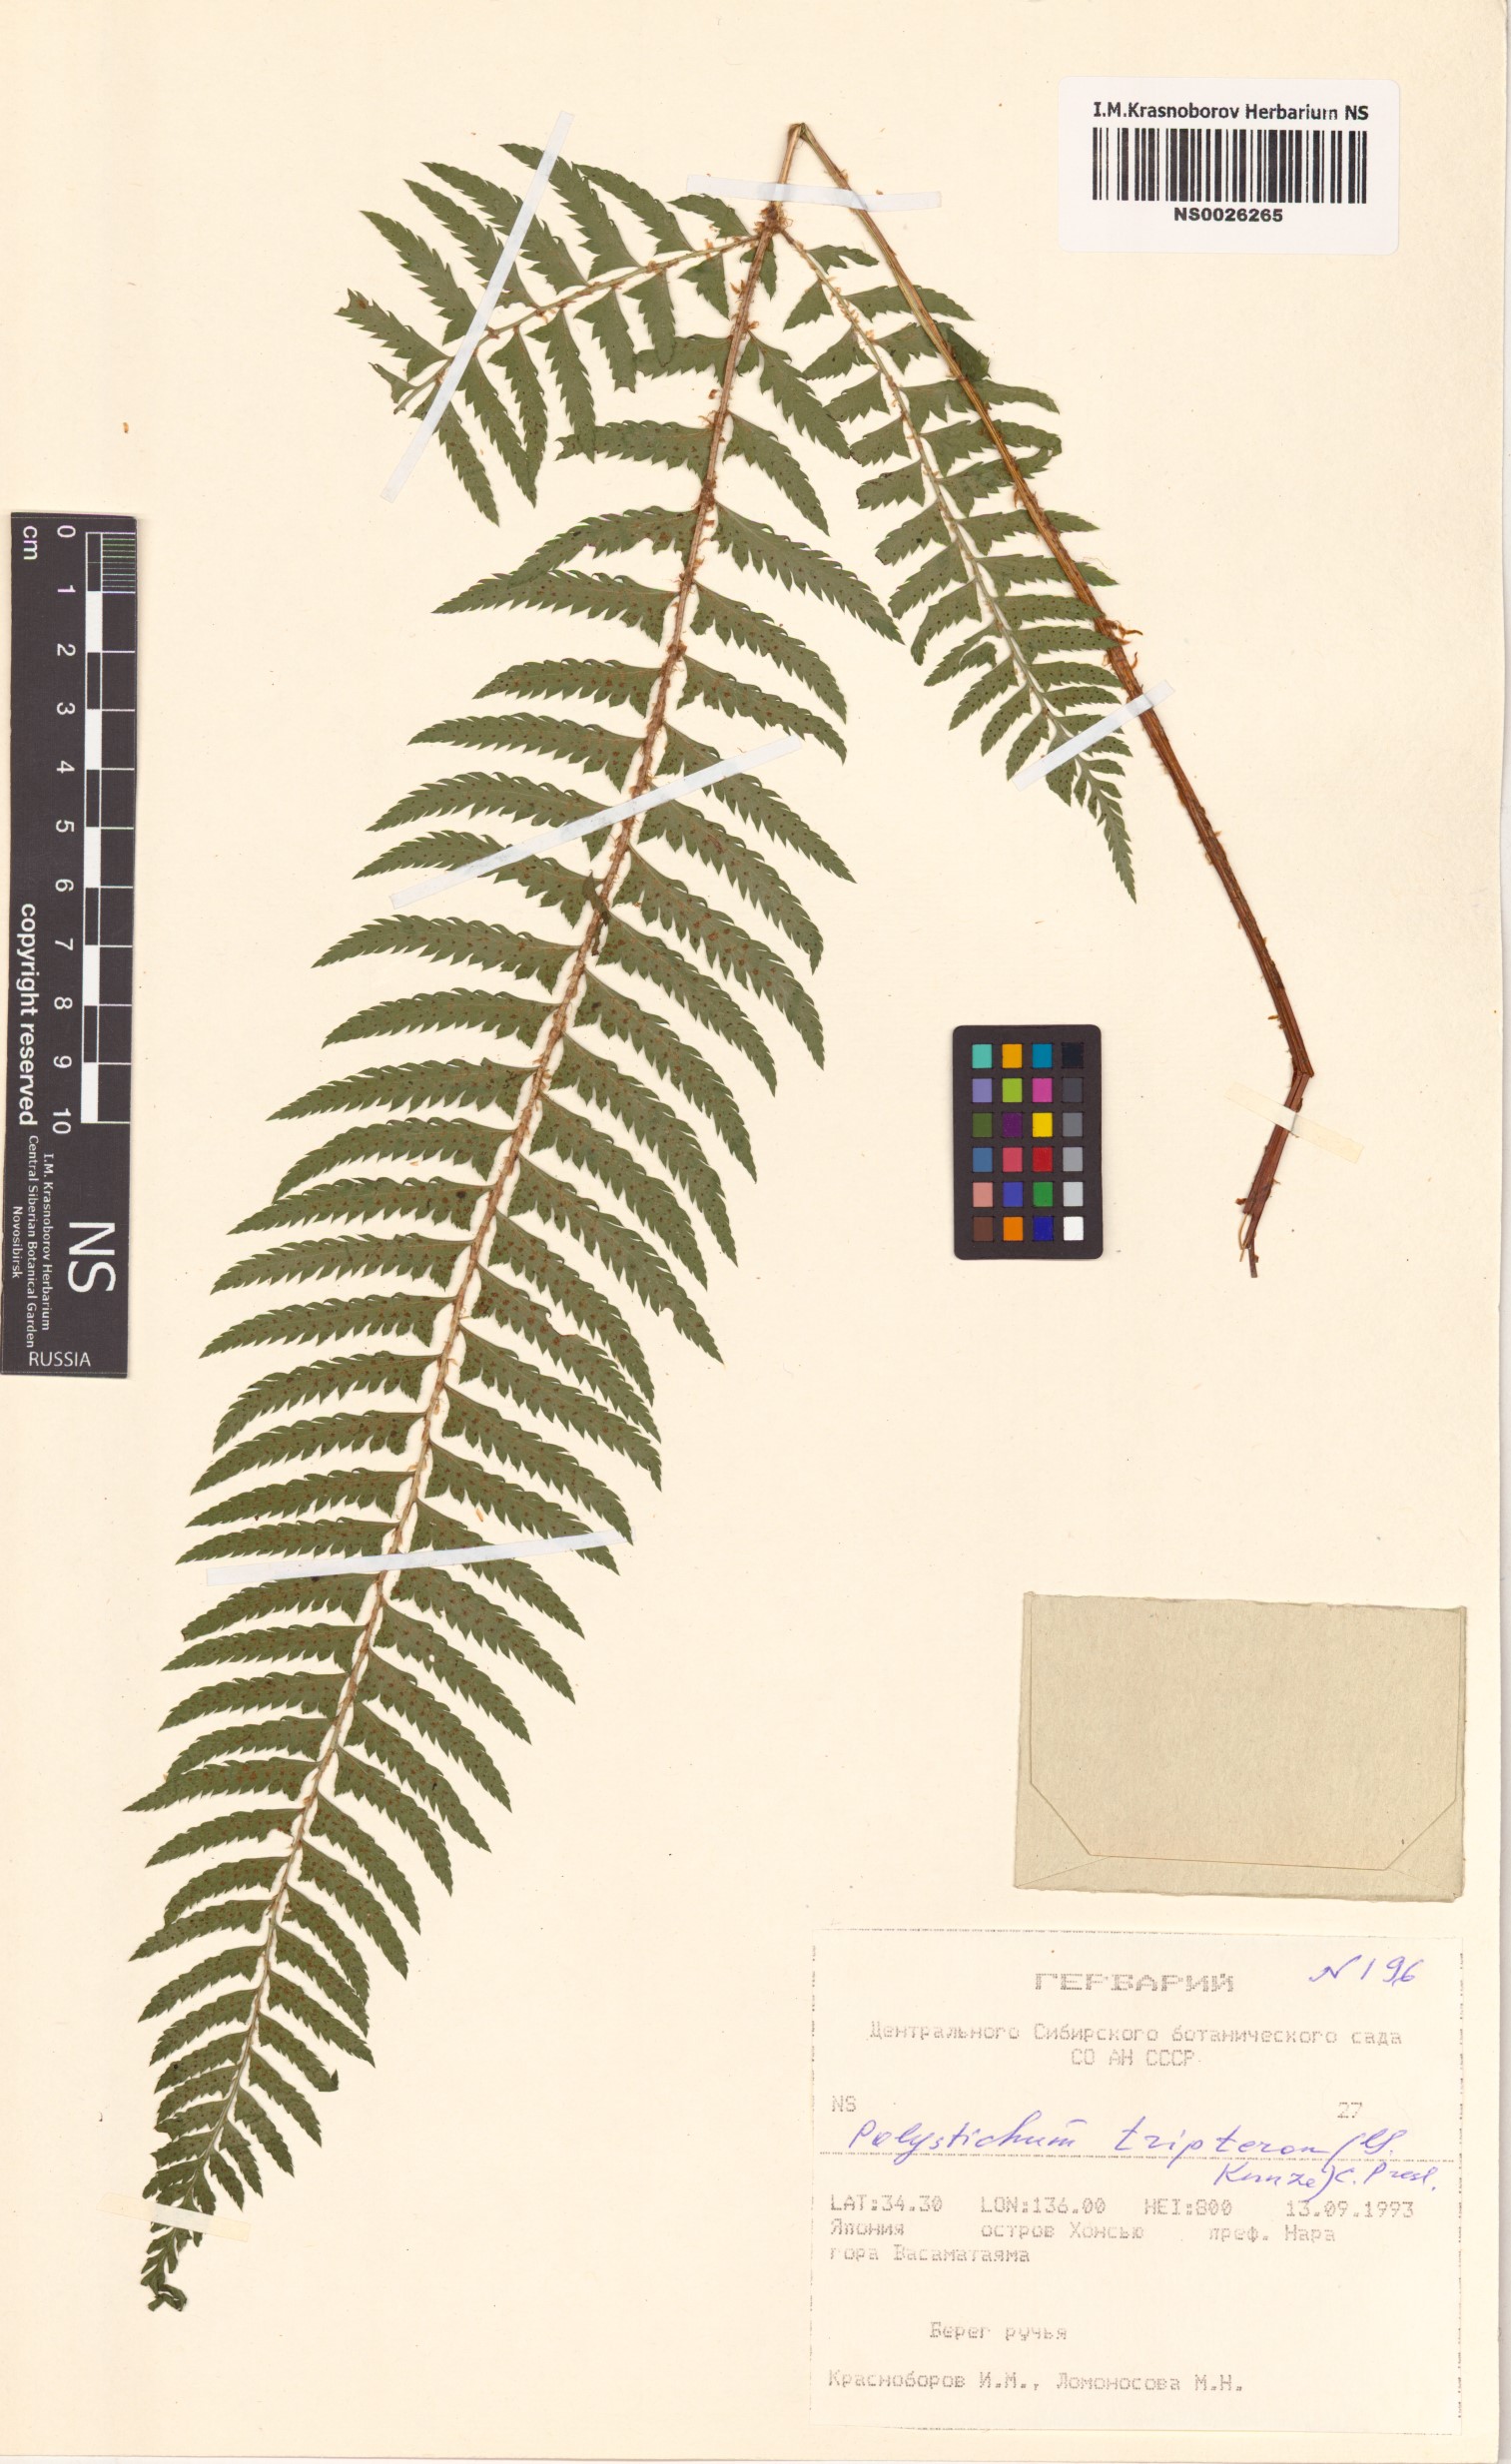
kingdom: Plantae
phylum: Tracheophyta
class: Polypodiopsida
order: Polypodiales
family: Dryopteridaceae
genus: Polystichum
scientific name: Polystichum tripteron
